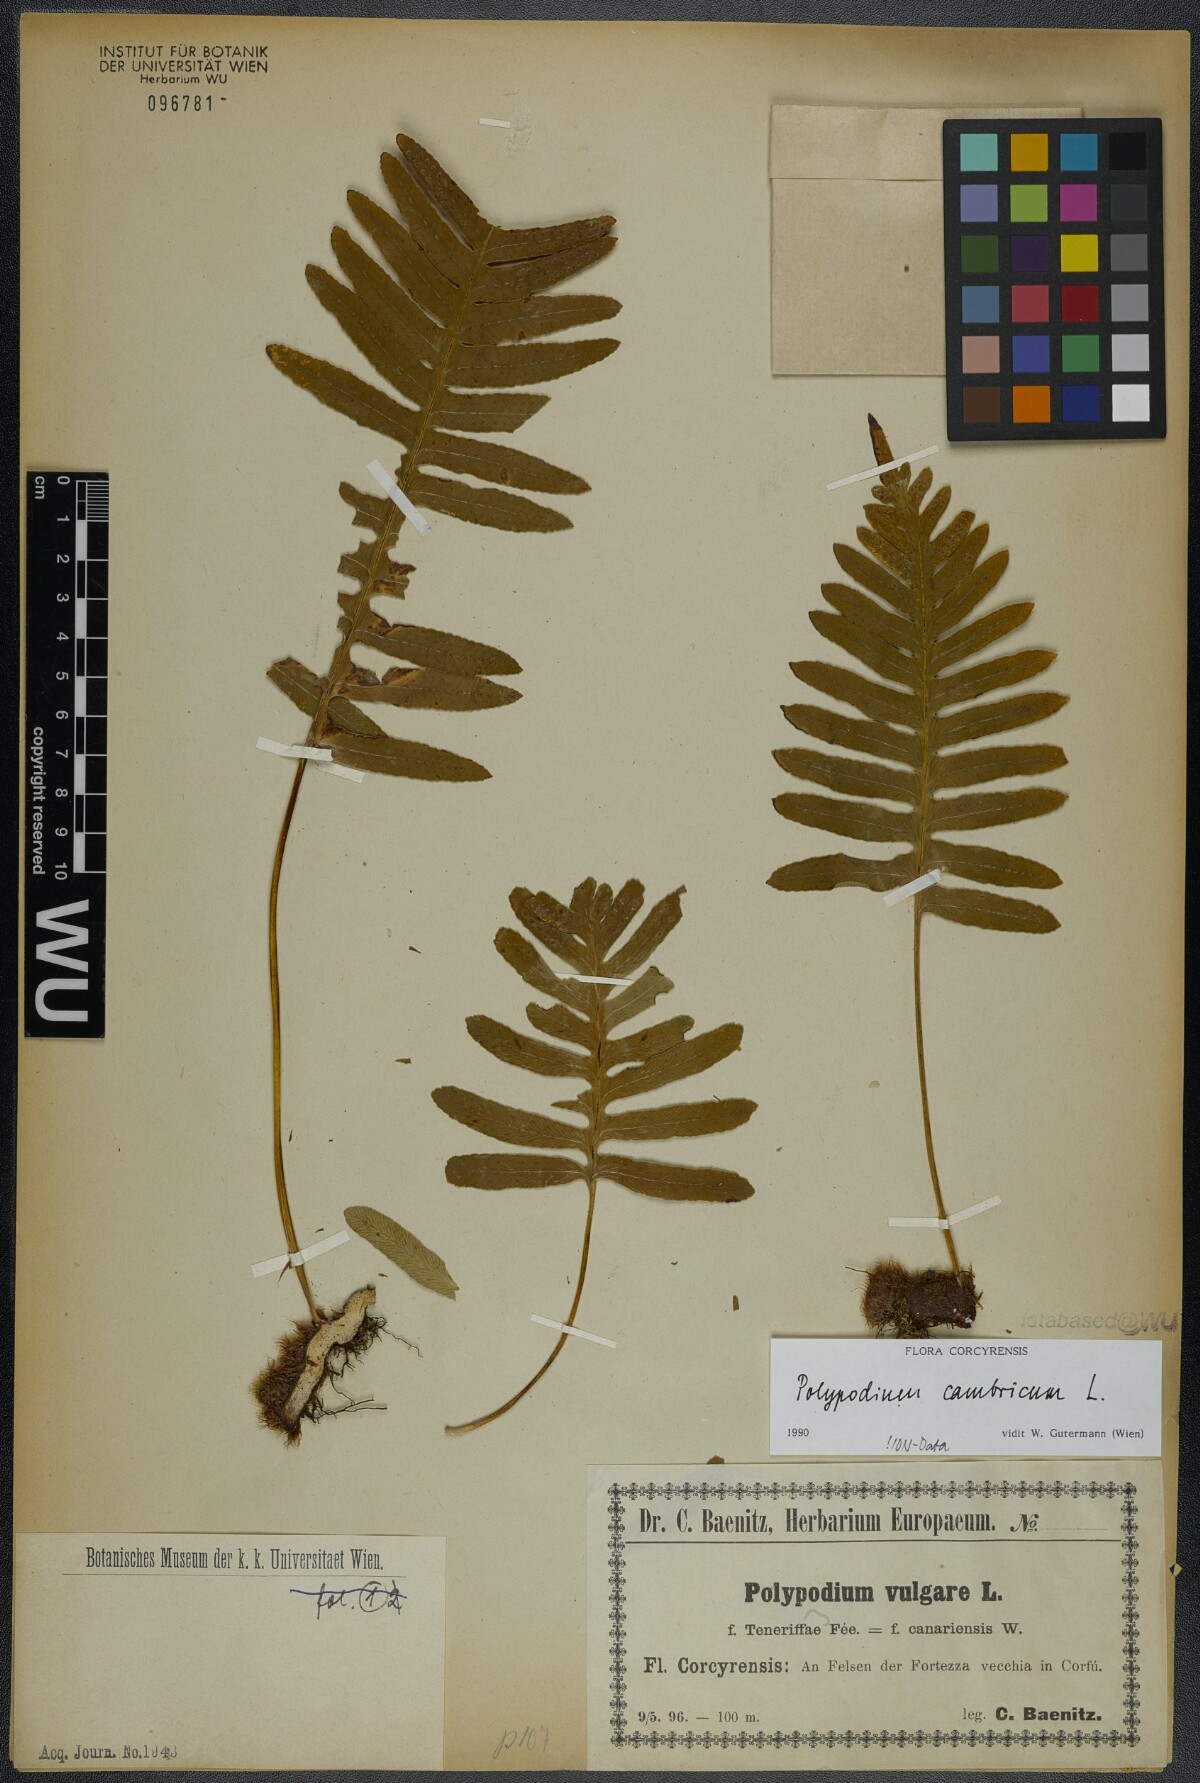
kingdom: Plantae
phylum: Tracheophyta
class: Polypodiopsida
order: Polypodiales
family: Polypodiaceae
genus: Polypodium
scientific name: Polypodium cambricum
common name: Southern polypody
